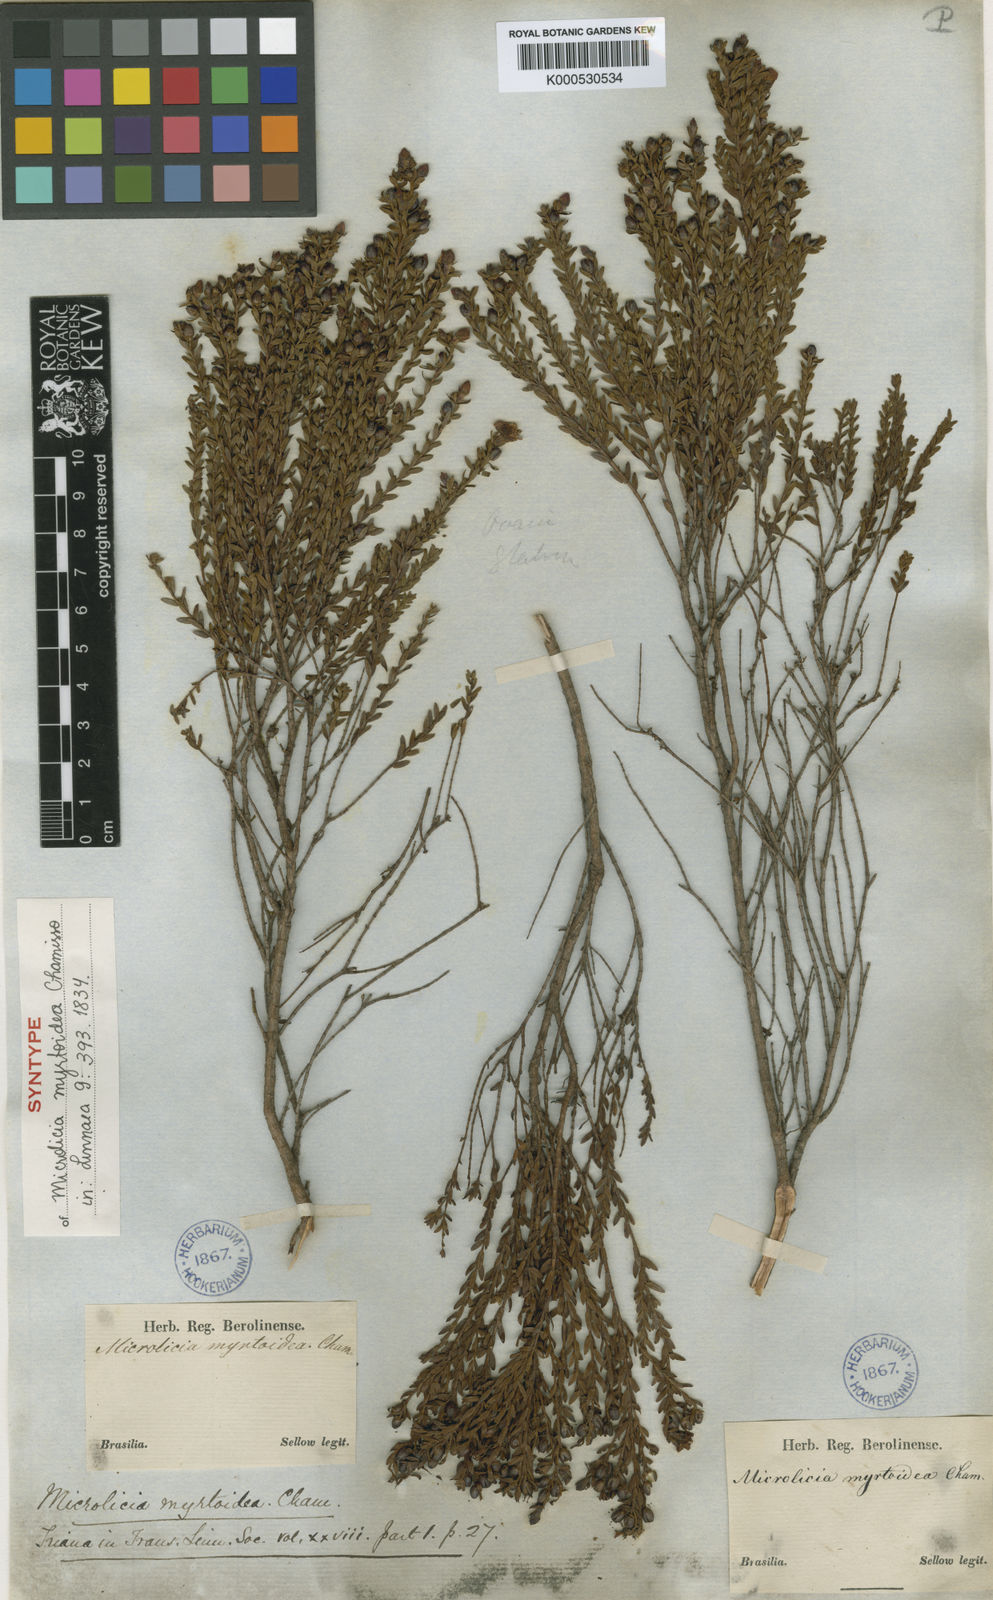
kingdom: Plantae
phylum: Tracheophyta
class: Magnoliopsida
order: Myrtales
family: Melastomataceae
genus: Microlicia
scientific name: Microlicia myrtoidea
